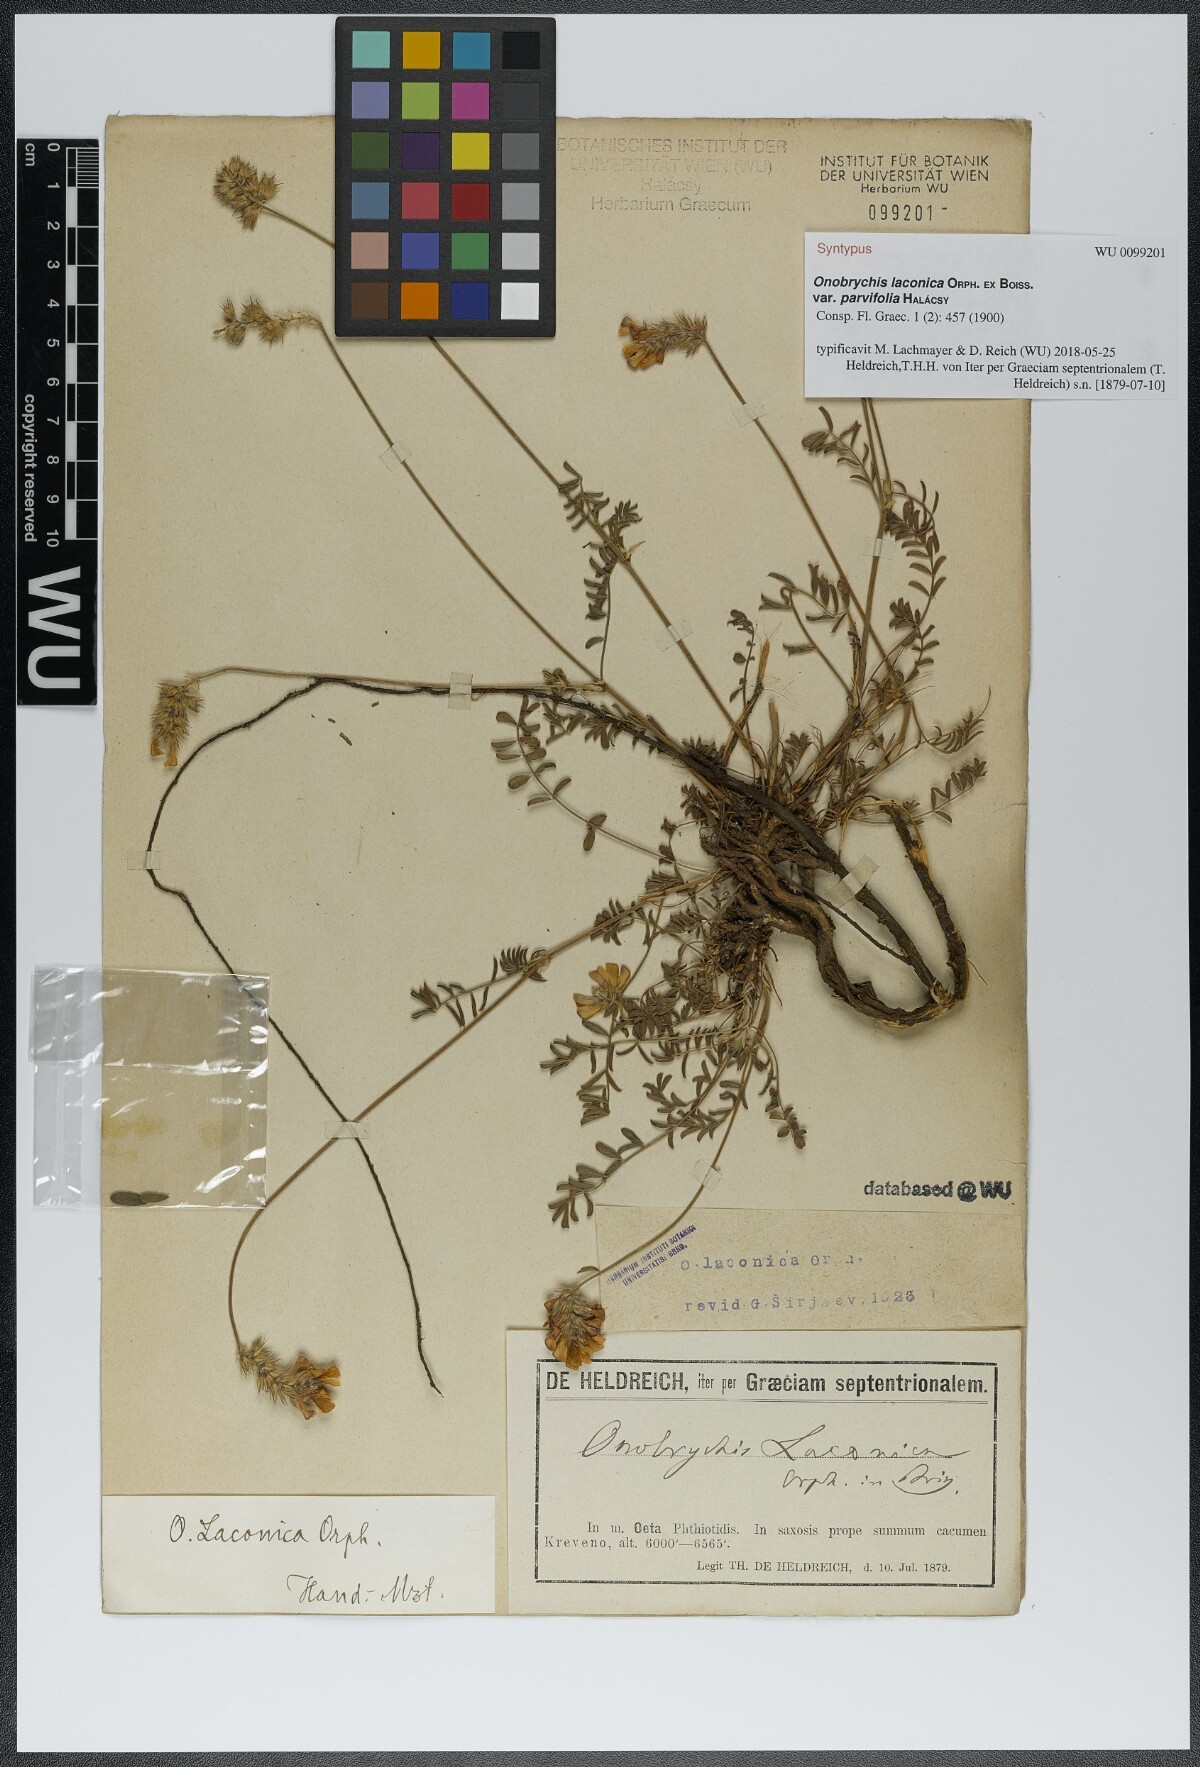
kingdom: Plantae
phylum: Tracheophyta
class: Magnoliopsida
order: Fabales
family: Fabaceae
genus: Onobrychis
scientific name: Onobrychis alba
